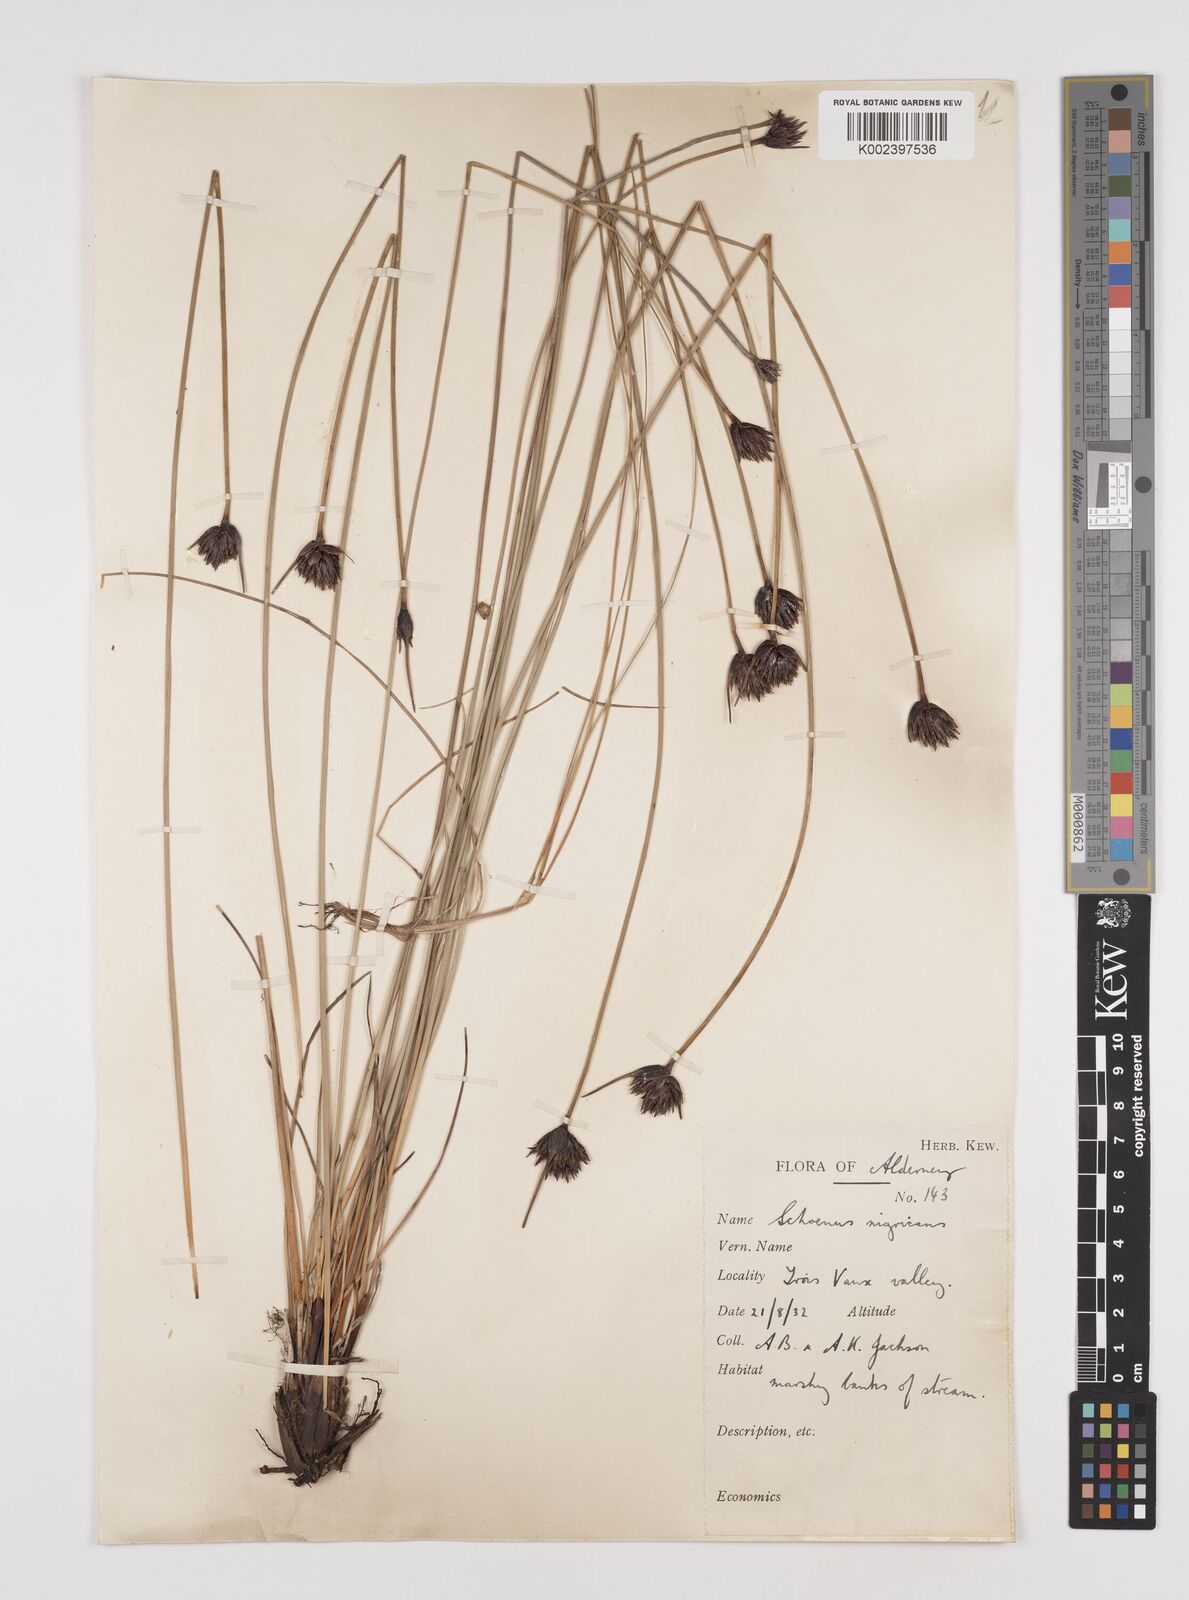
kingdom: Plantae
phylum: Tracheophyta
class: Liliopsida
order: Poales
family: Cyperaceae
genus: Schoenus
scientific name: Schoenus nigricans
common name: Black bog-rush
